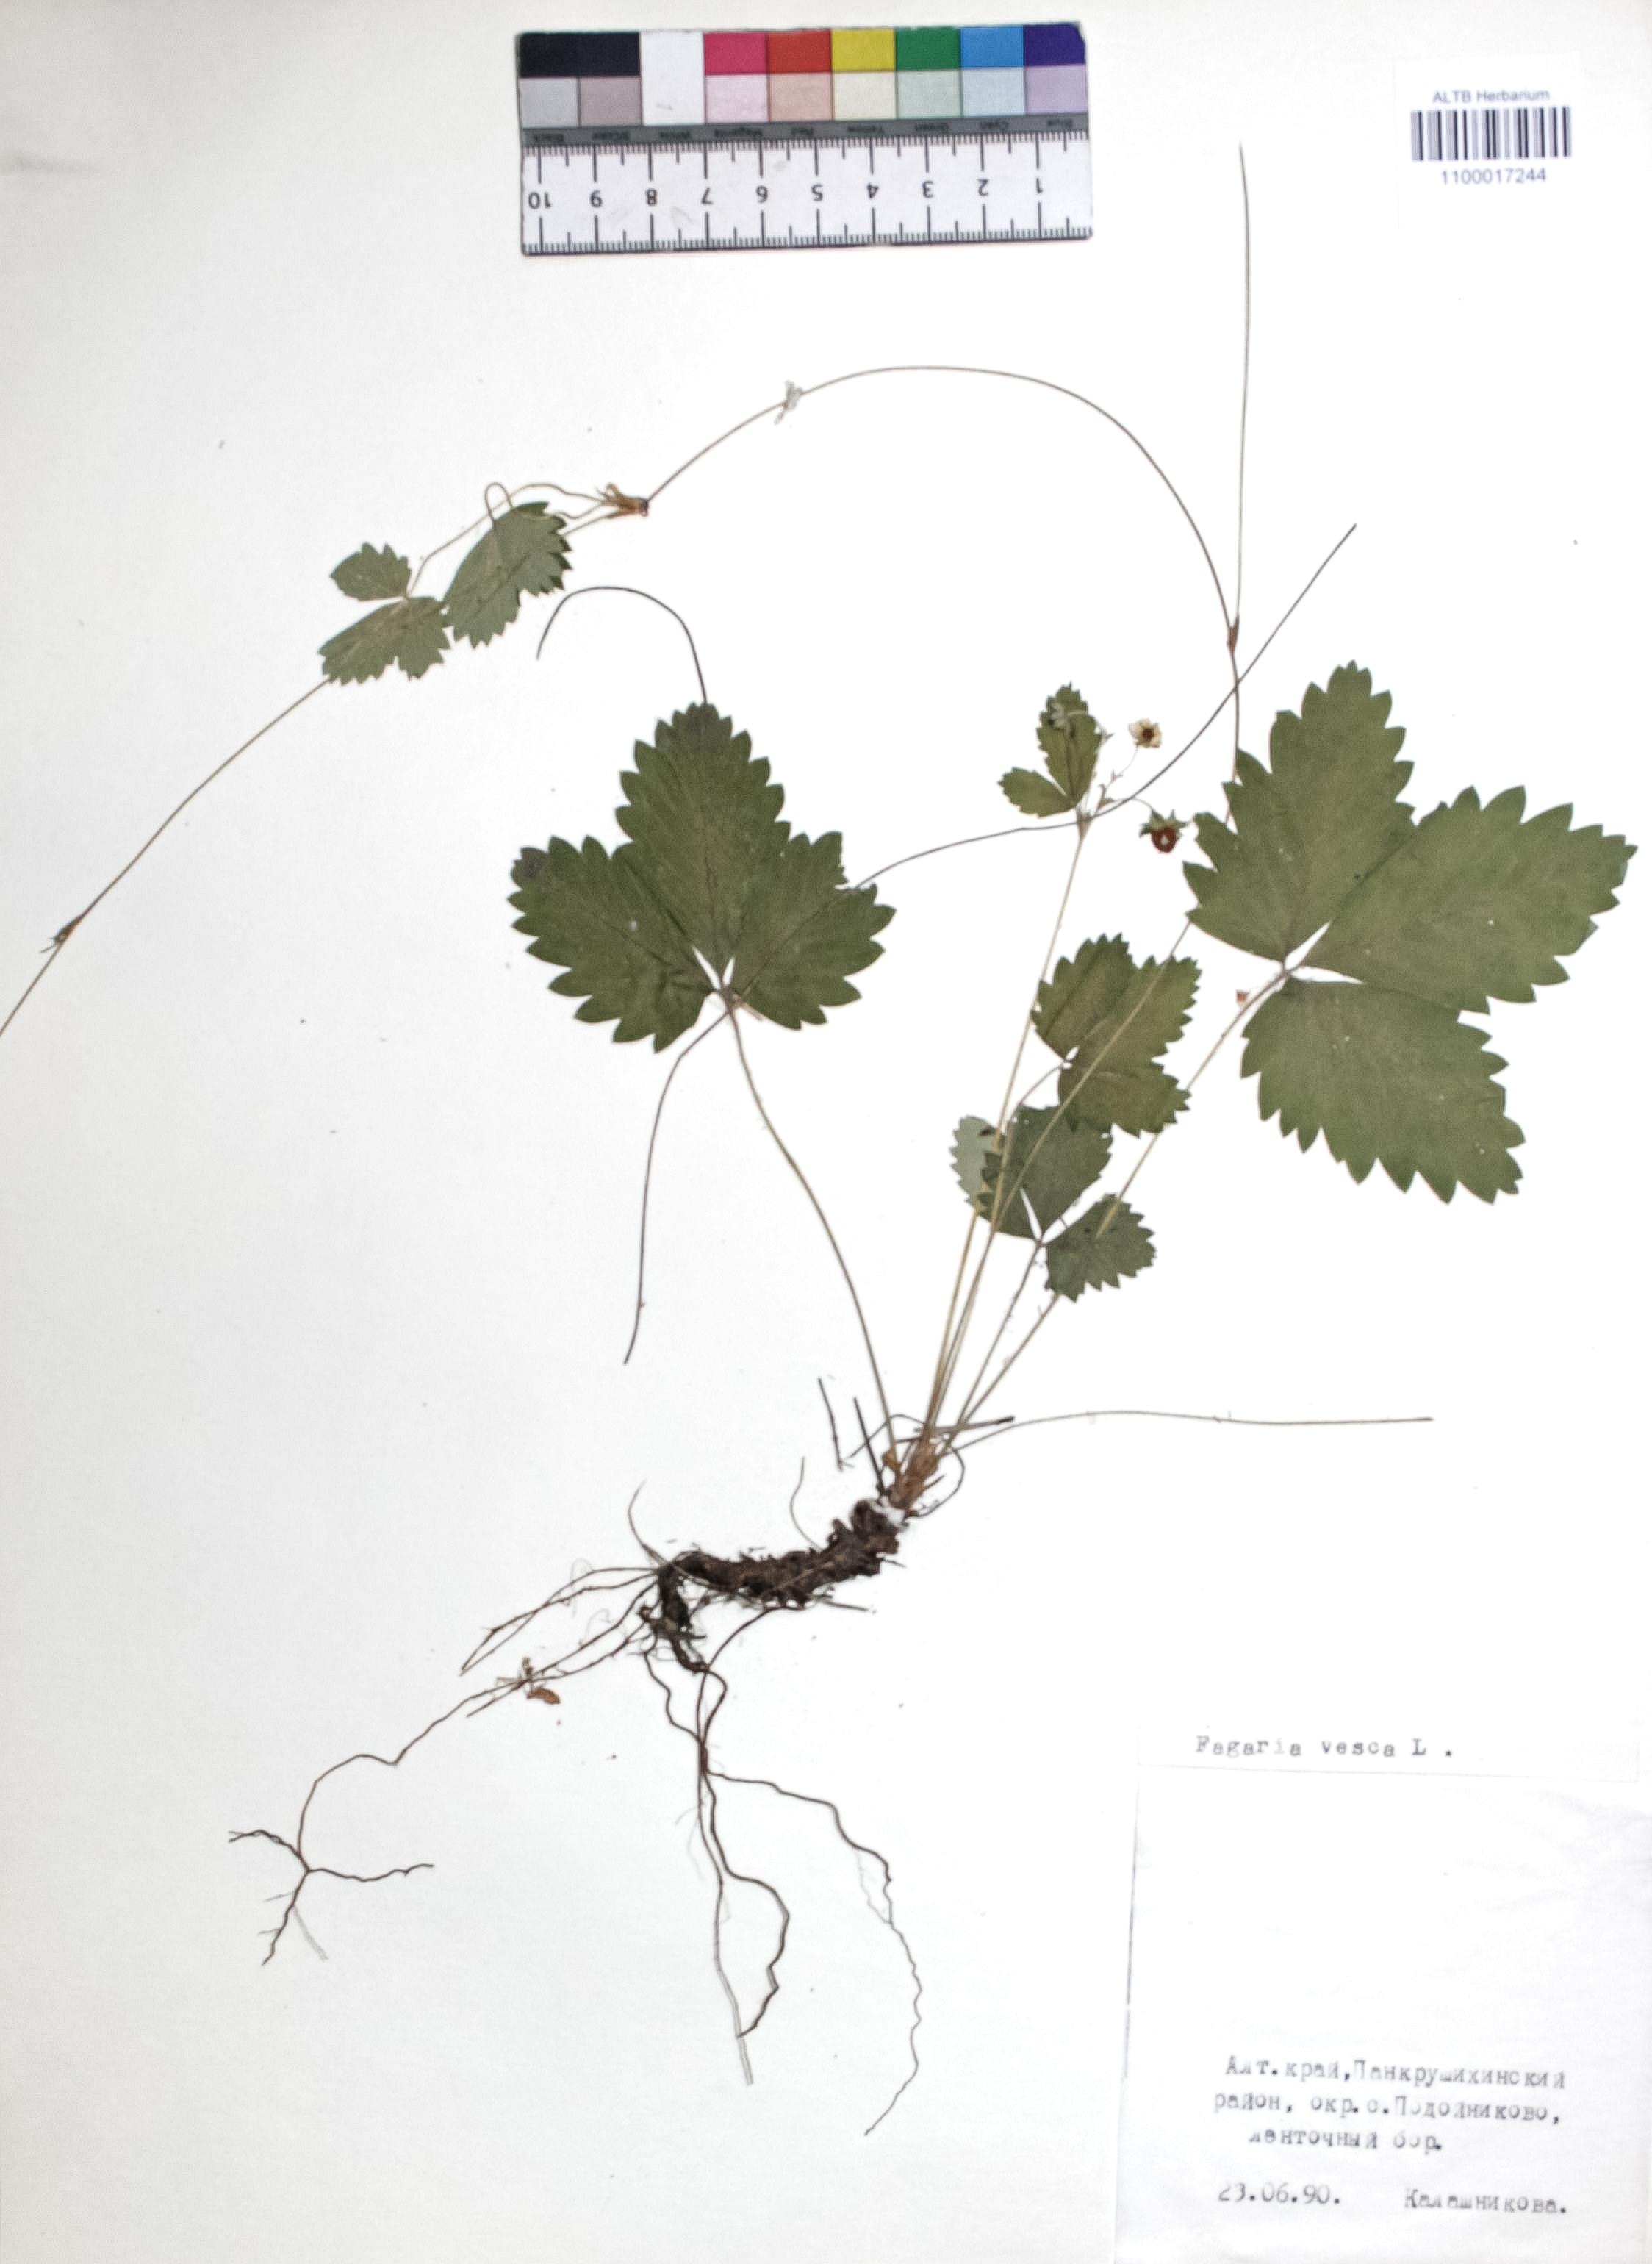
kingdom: Plantae
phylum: Tracheophyta
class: Magnoliopsida
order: Rosales
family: Rosaceae
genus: Fragaria
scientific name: Fragaria vesca
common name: Wild strawberry
